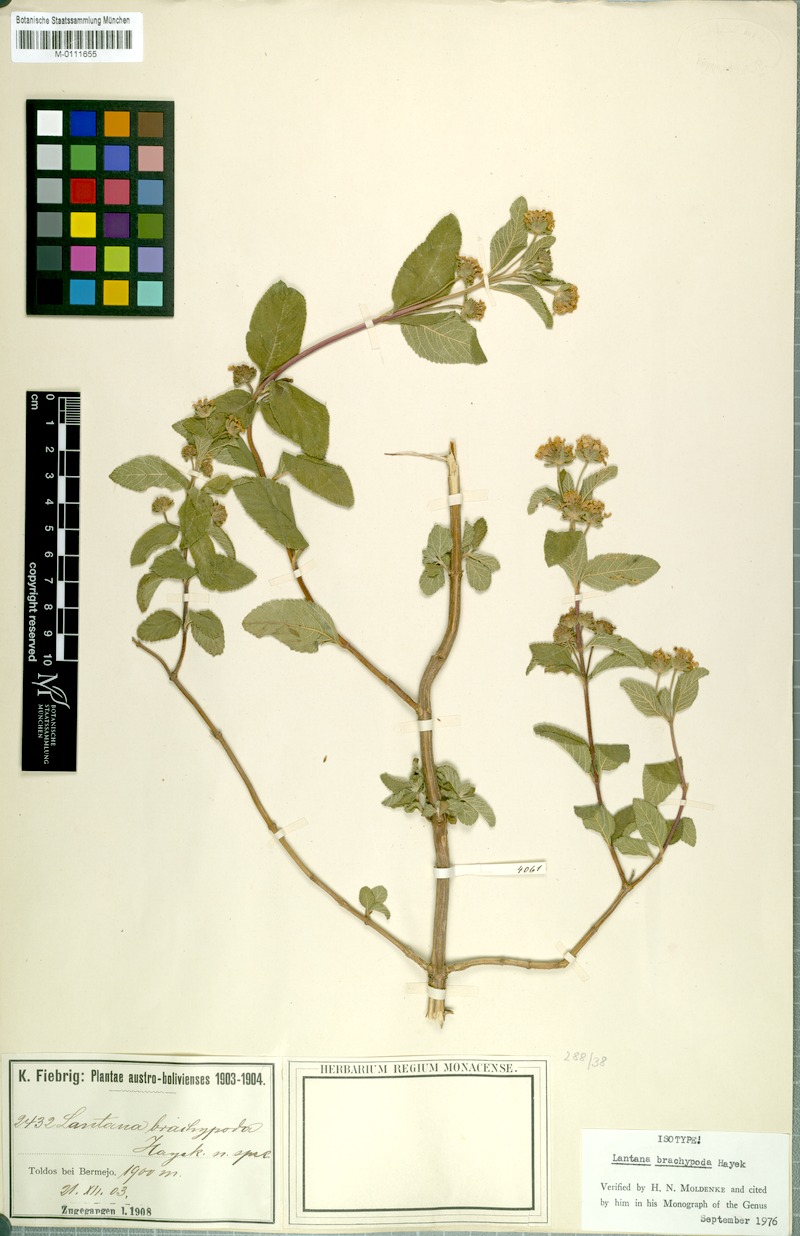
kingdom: Plantae
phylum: Tracheophyta
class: Magnoliopsida
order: Lamiales
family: Verbenaceae
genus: Lippia
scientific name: Lippia brachypoda
